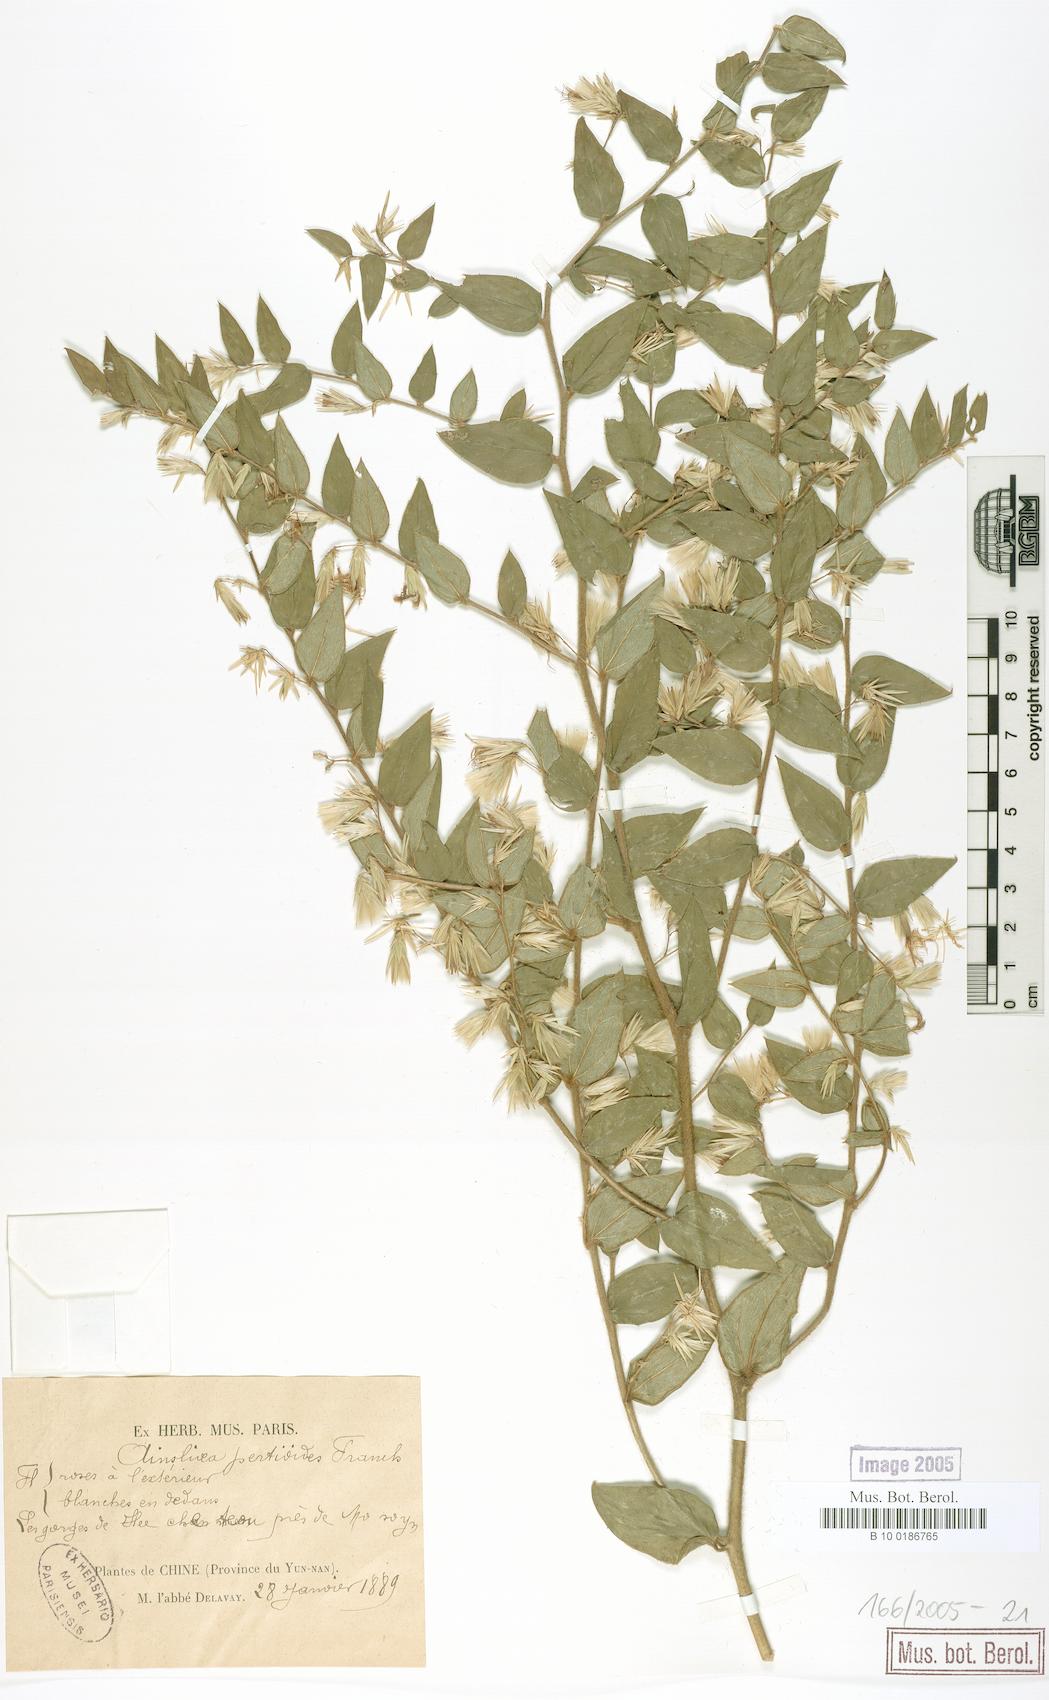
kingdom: Plantae
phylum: Tracheophyta
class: Magnoliopsida
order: Asterales
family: Asteraceae
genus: Ainsliaea
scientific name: Ainsliaea pertyoides
